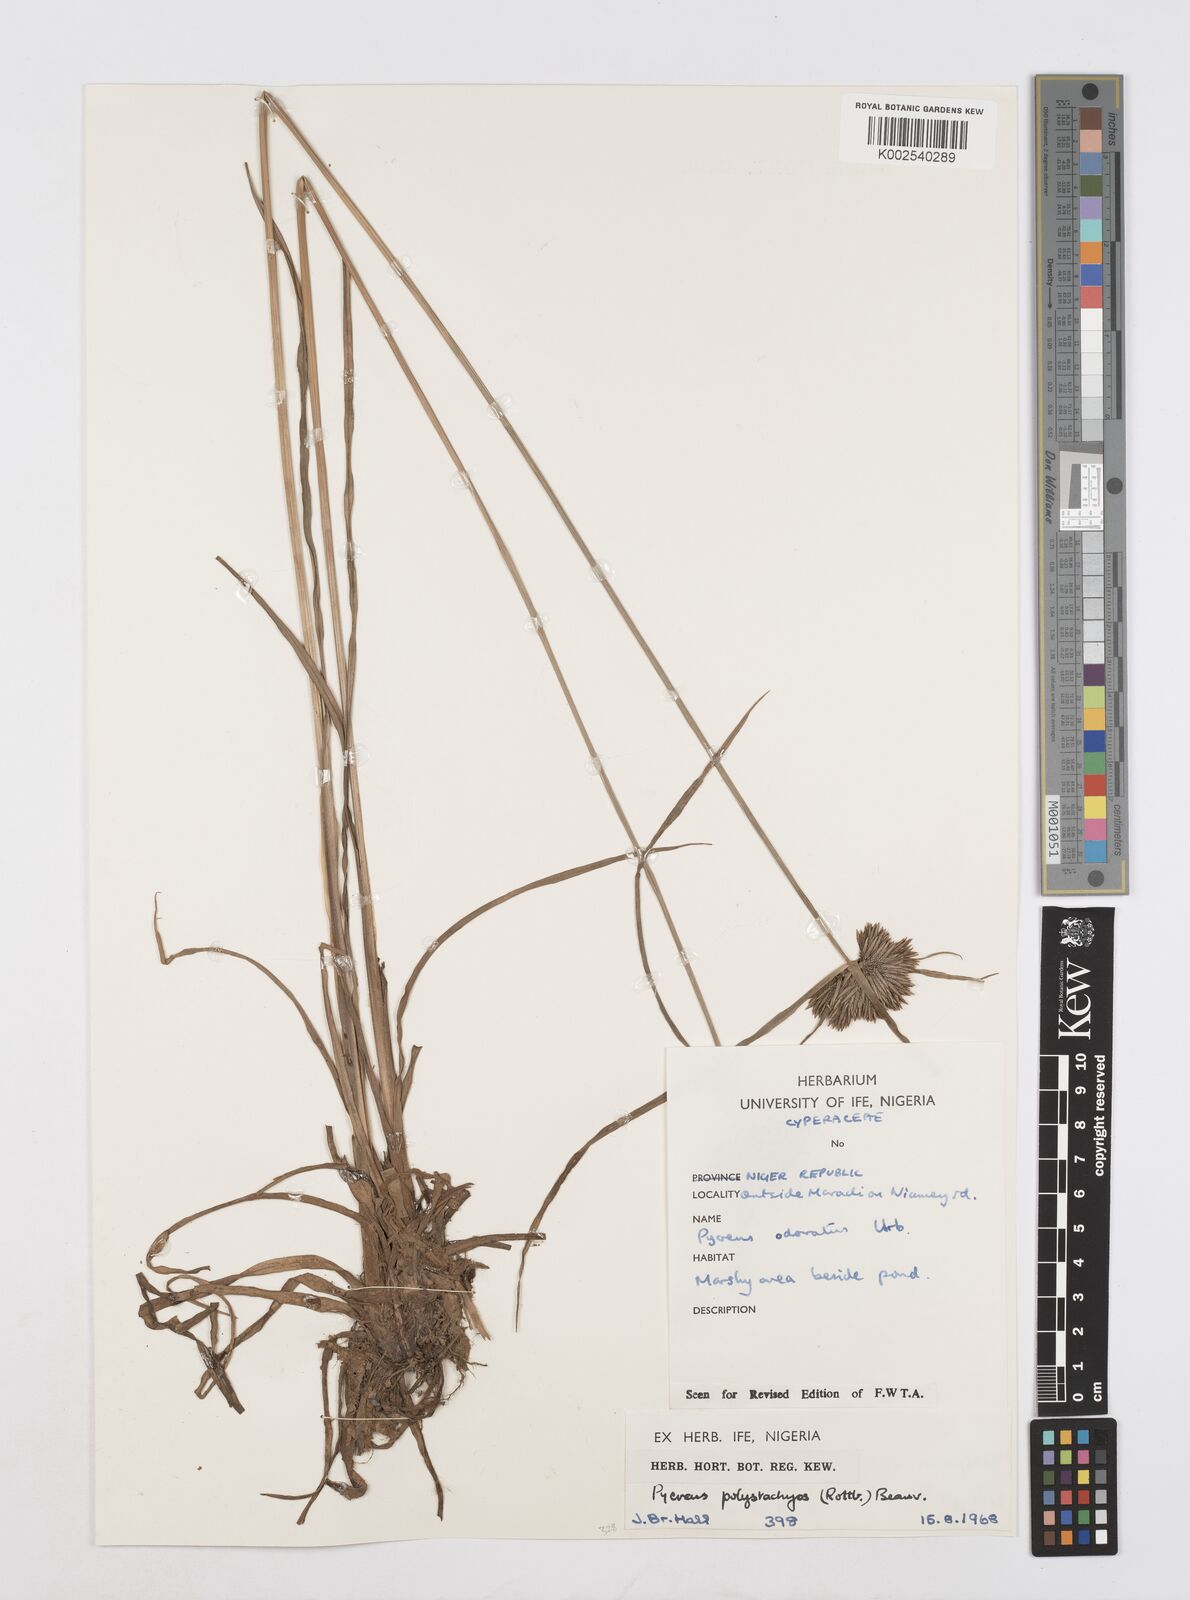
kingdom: Plantae
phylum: Tracheophyta
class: Liliopsida
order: Poales
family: Cyperaceae
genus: Cyperus
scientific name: Cyperus polystachyos
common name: Bunchy flat sedge
